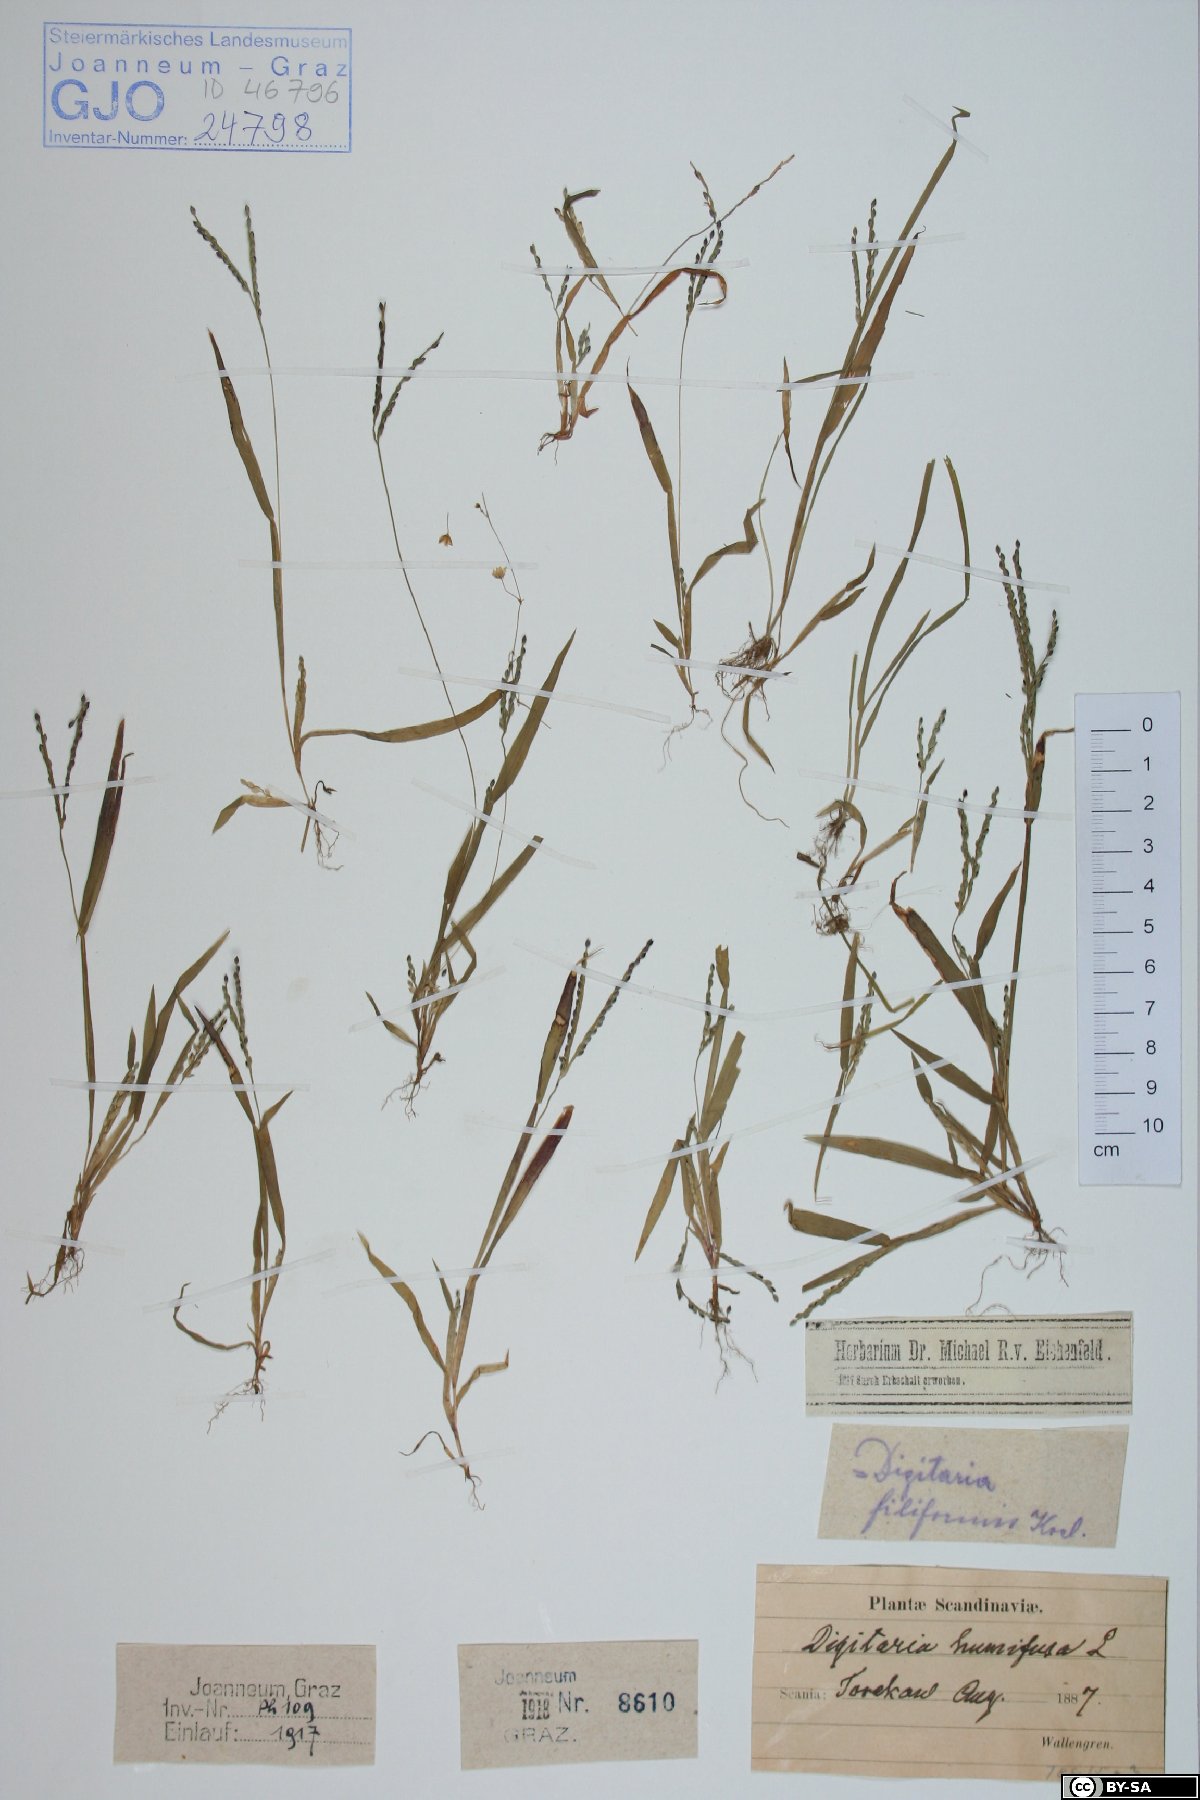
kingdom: Plantae
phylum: Tracheophyta
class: Liliopsida
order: Poales
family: Poaceae
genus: Digitaria
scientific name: Digitaria ischaemum
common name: Smooth crabgrass
